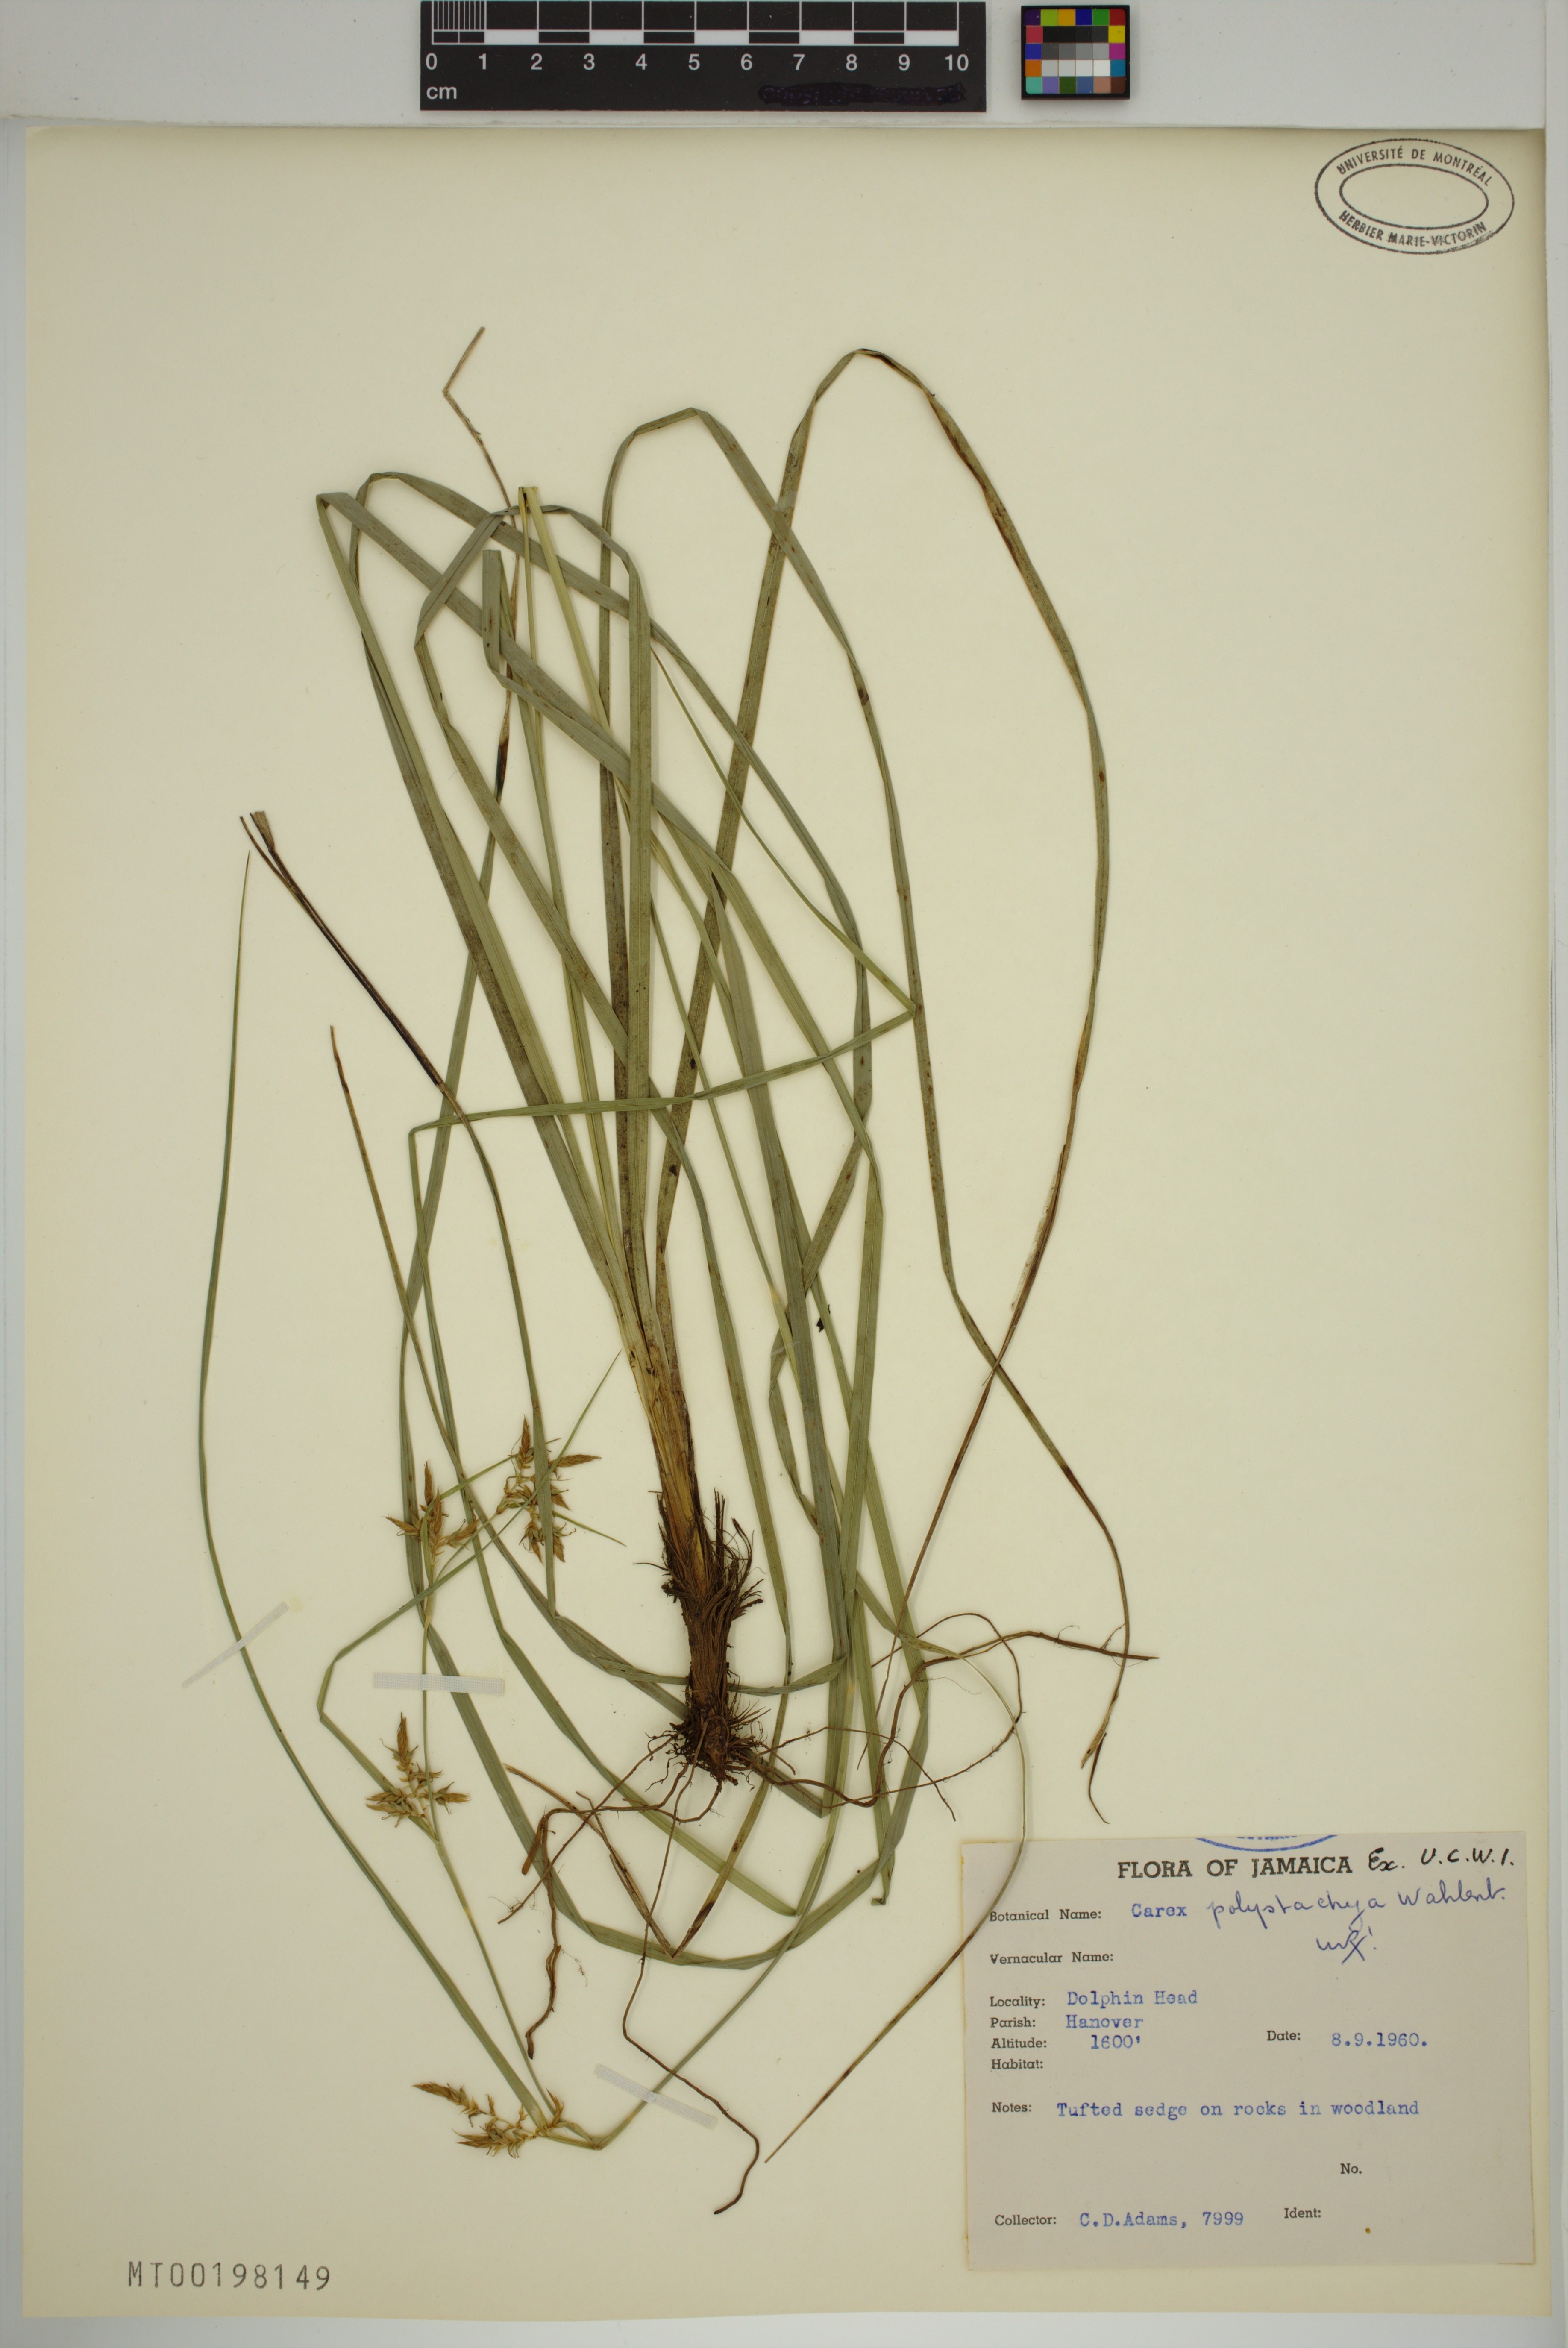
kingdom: Plantae
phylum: Tracheophyta
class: Liliopsida
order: Poales
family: Cyperaceae
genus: Carex
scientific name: Carex polystachya
